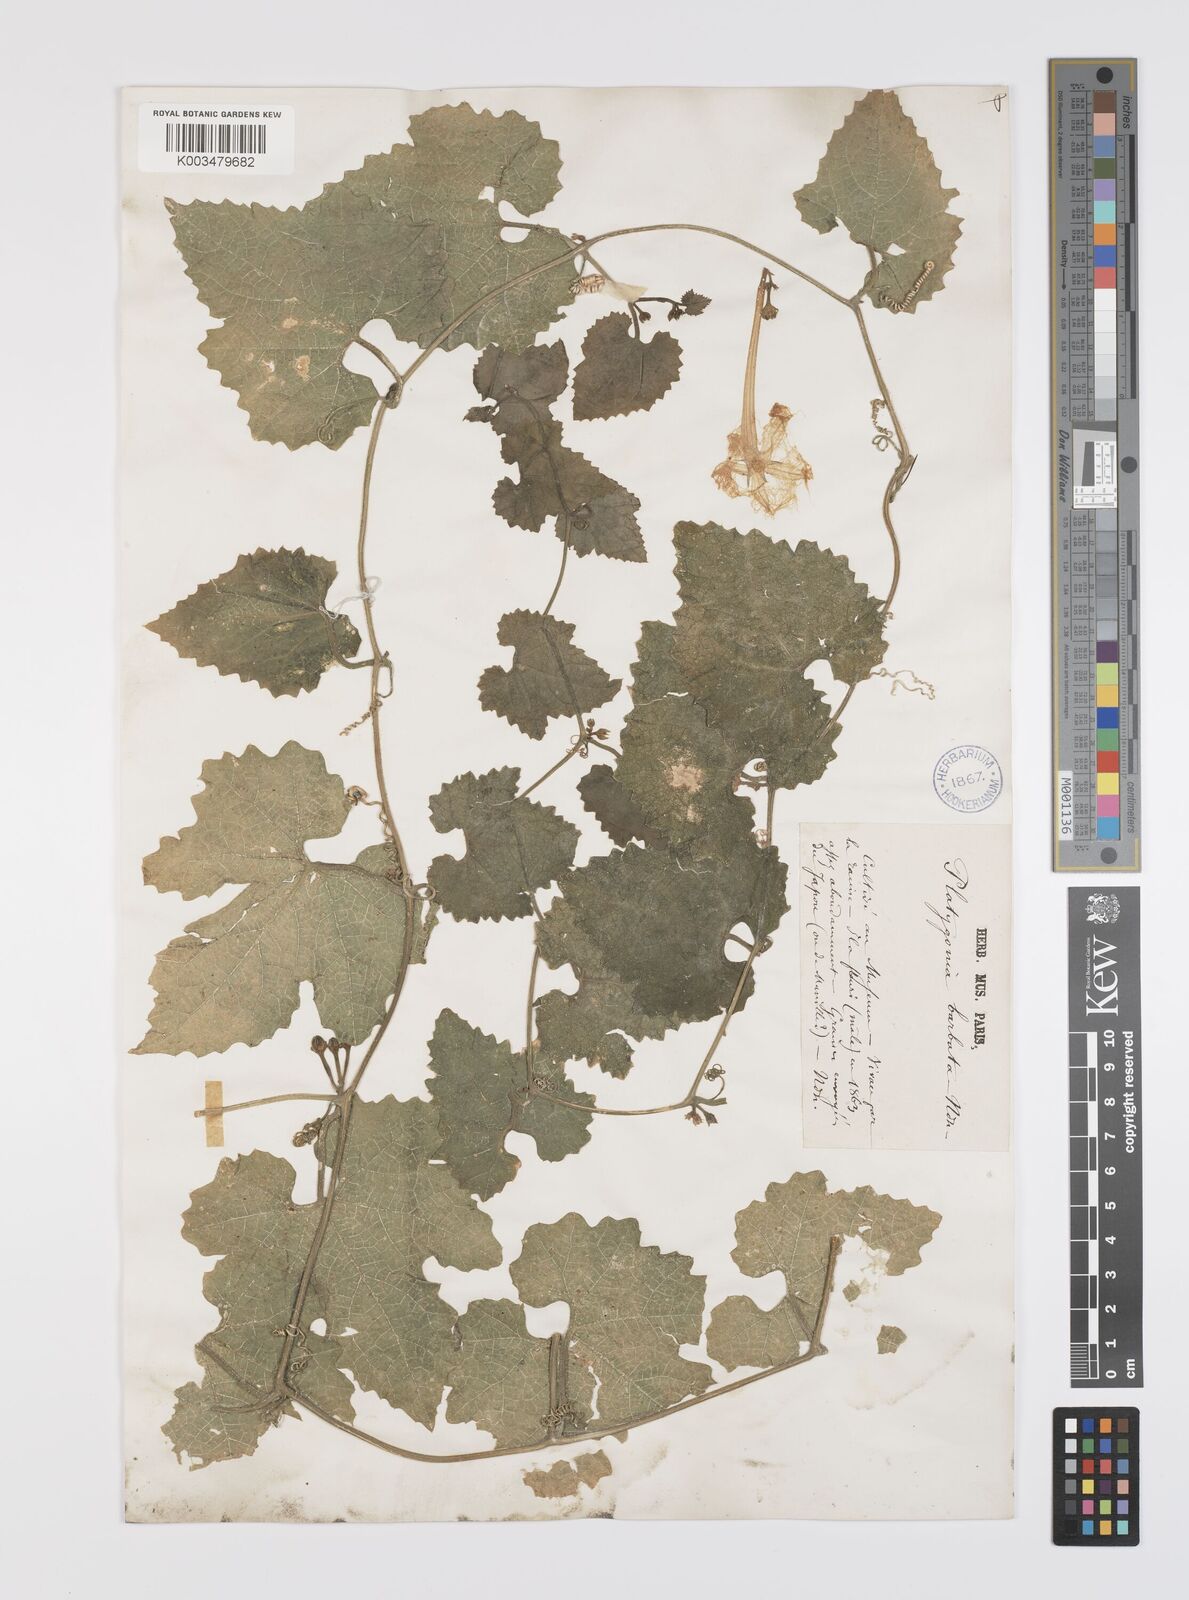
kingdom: Plantae
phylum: Tracheophyta
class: Magnoliopsida
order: Cucurbitales
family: Cucurbitaceae
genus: Trichosanthes
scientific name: Trichosanthes ovigera
